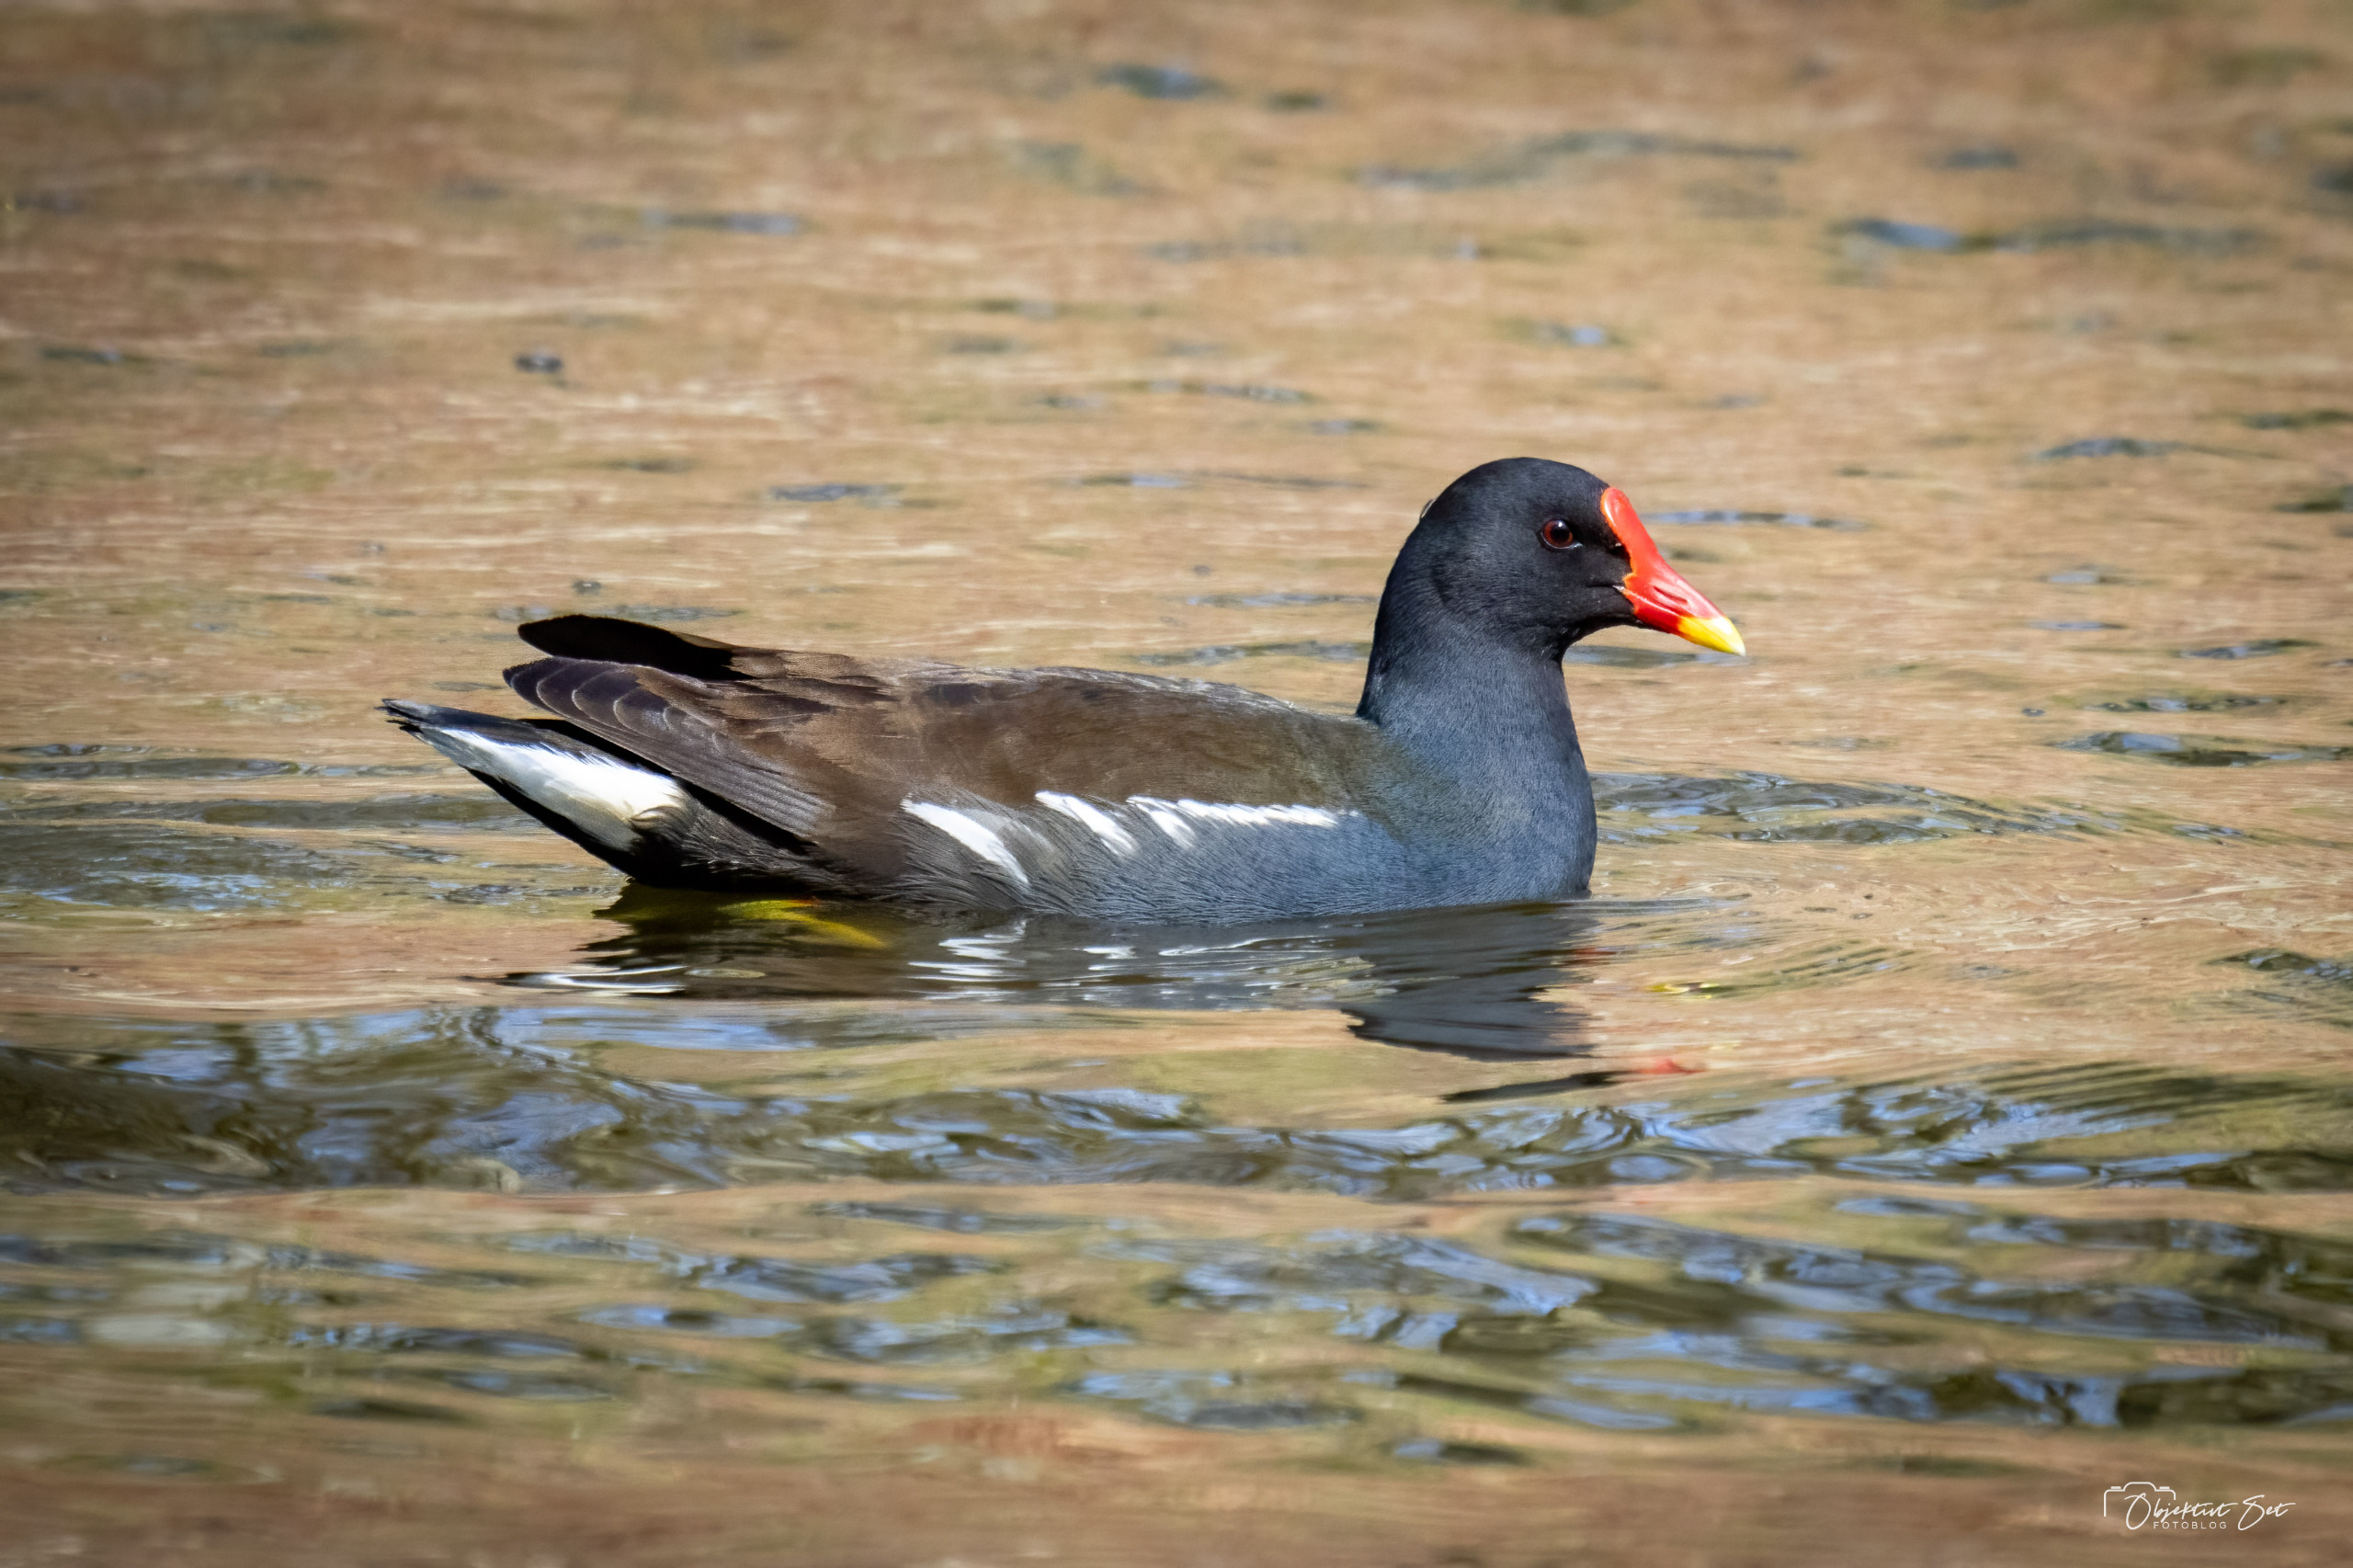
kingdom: Animalia
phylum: Chordata
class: Aves
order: Gruiformes
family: Rallidae
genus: Gallinula
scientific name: Gallinula chloropus
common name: Grønbenet rørhøne
